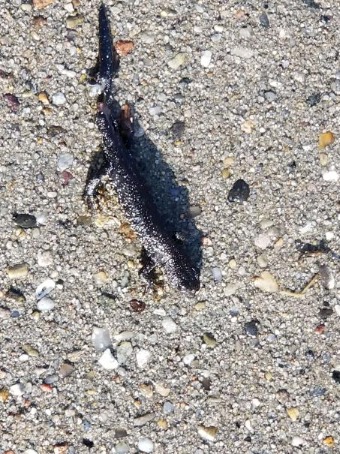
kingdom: Animalia
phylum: Chordata
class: Amphibia
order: Caudata
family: Salamandridae
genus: Triturus
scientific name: Triturus cristatus
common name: Stor vandsalamander
